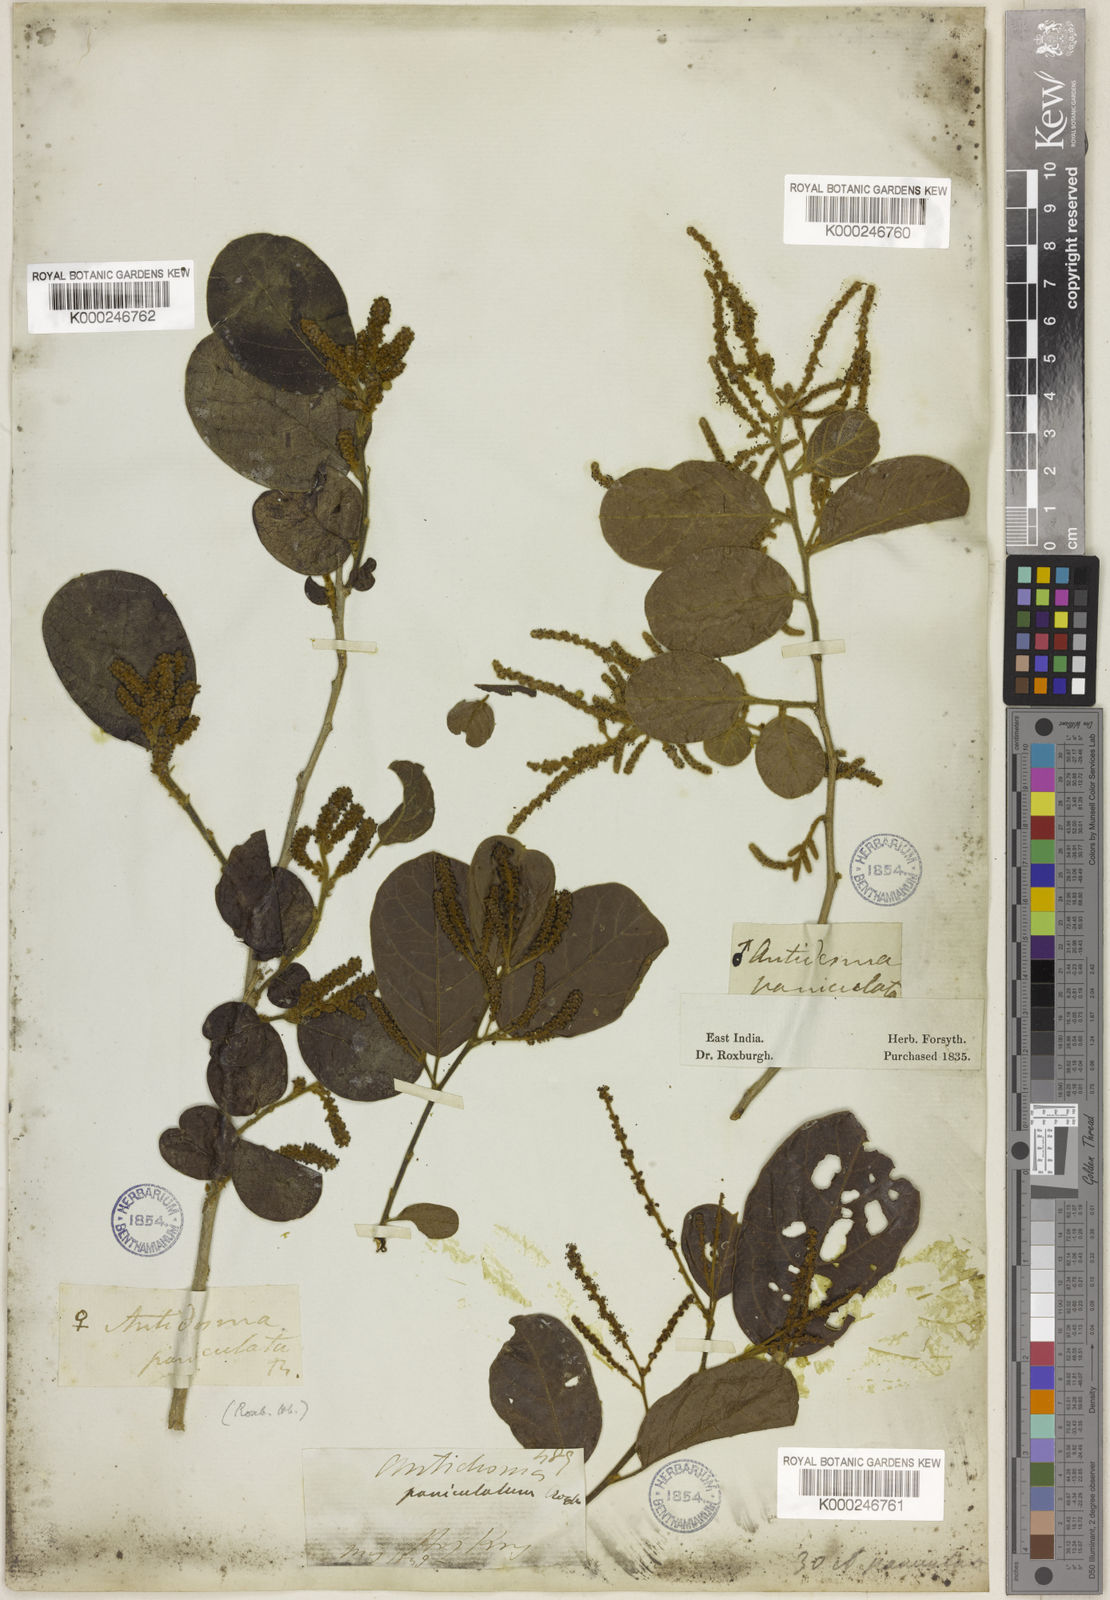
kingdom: Plantae
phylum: Tracheophyta
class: Magnoliopsida
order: Malpighiales
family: Phyllanthaceae
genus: Antidesma
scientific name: Antidesma ghaesembilla
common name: Black currant-tree
